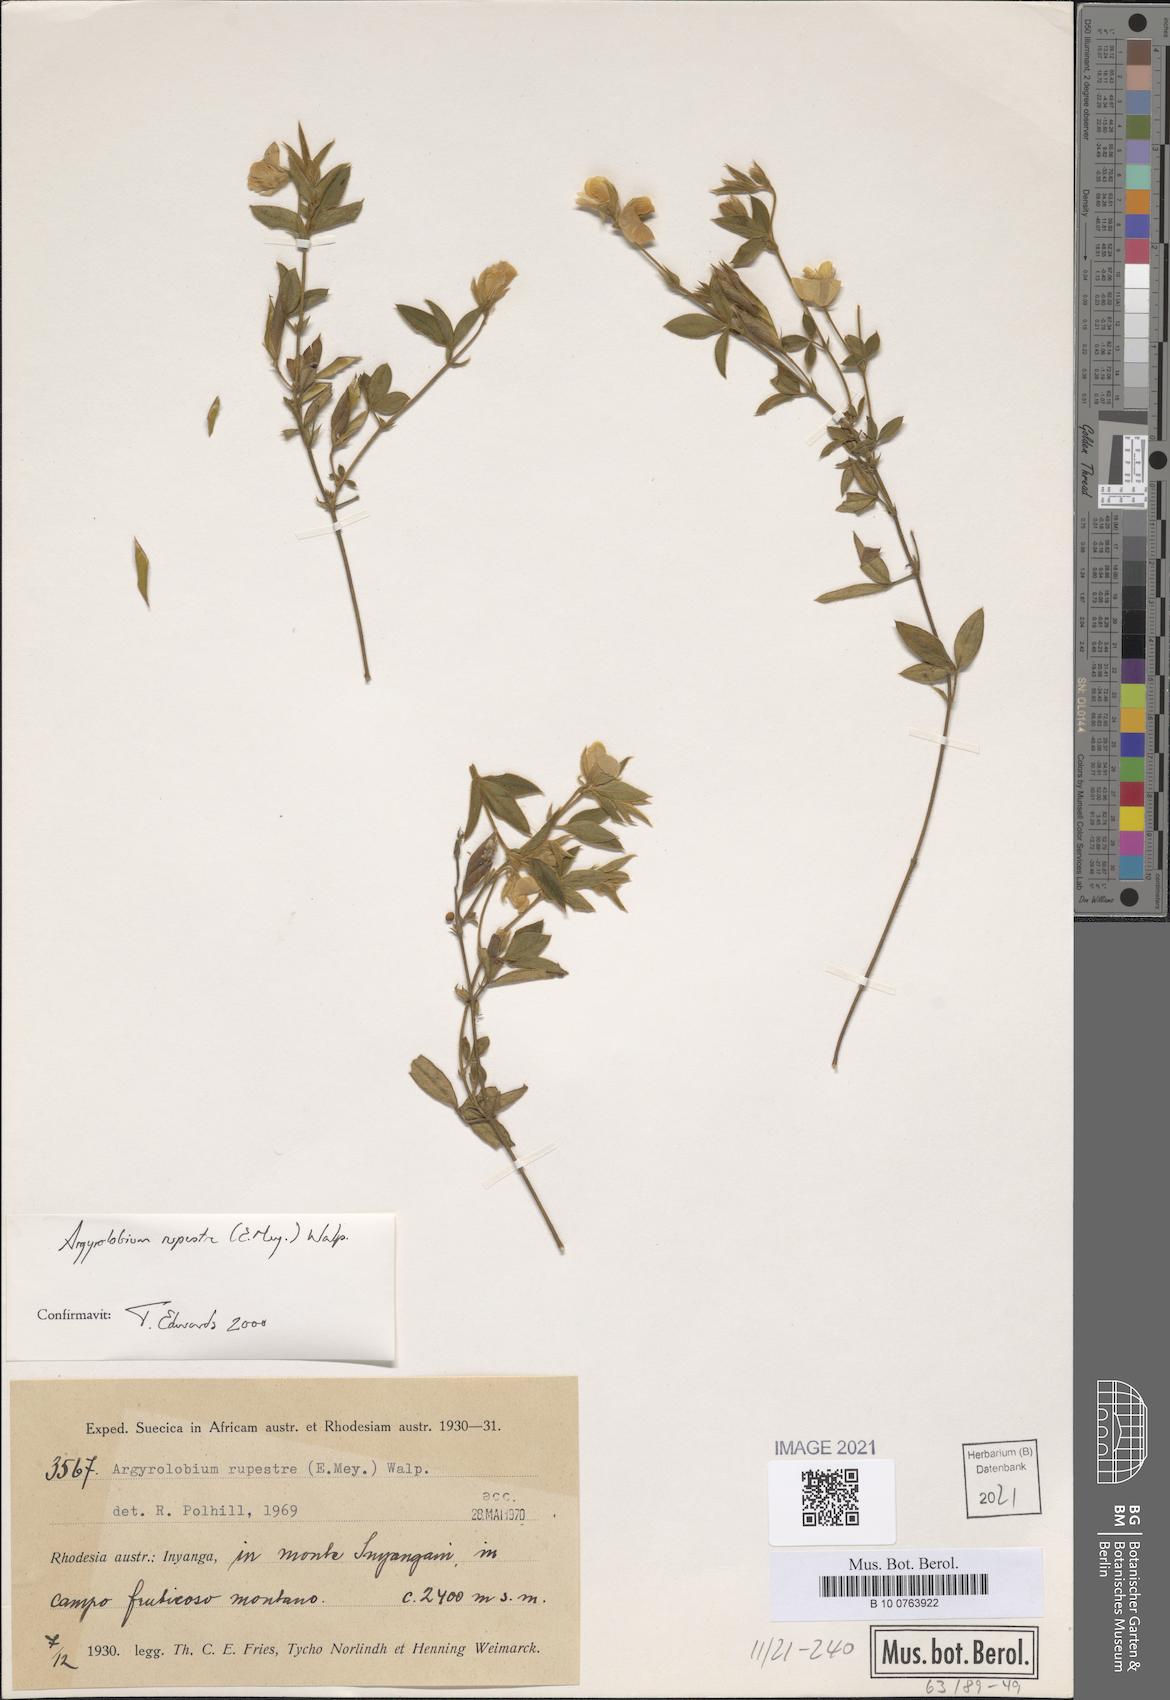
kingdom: Plantae
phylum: Tracheophyta
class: Magnoliopsida
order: Fabales
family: Fabaceae
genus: Argyrolobium
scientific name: Argyrolobium rupestre
